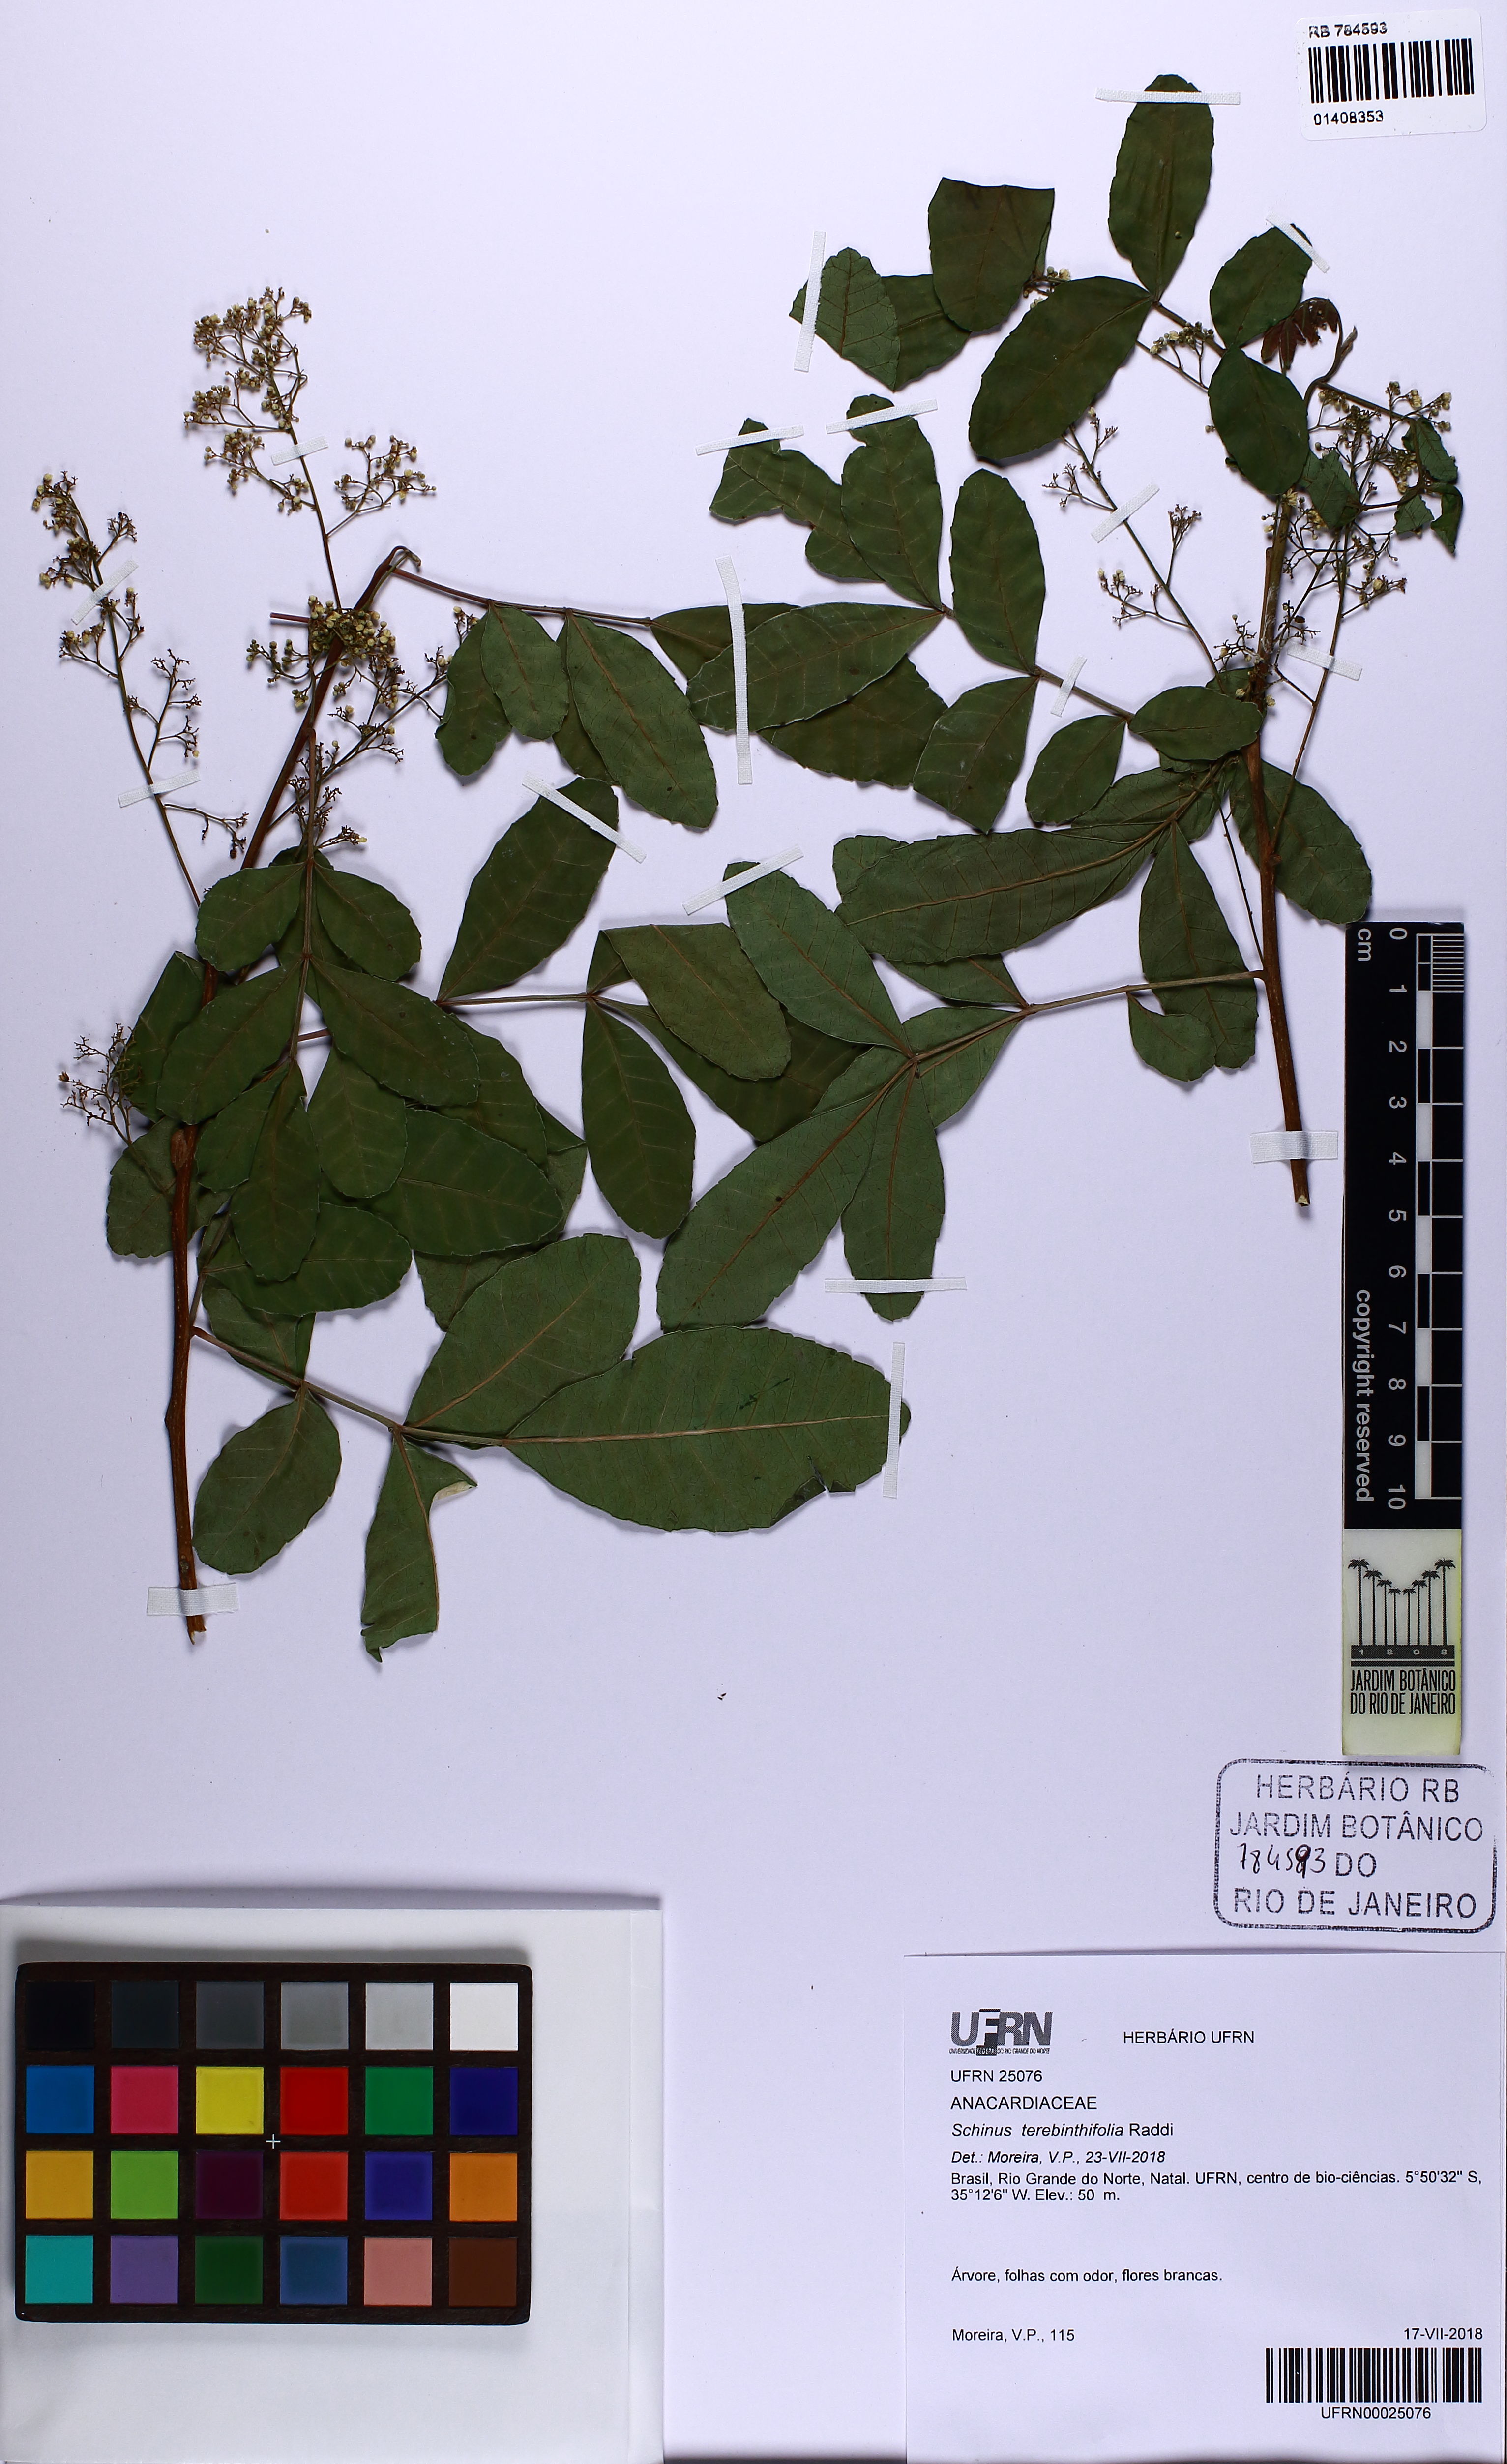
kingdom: Plantae
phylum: Tracheophyta
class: Magnoliopsida
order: Sapindales
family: Anacardiaceae
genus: Schinus
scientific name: Schinus terebinthifolia
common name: Brazilian peppertree
